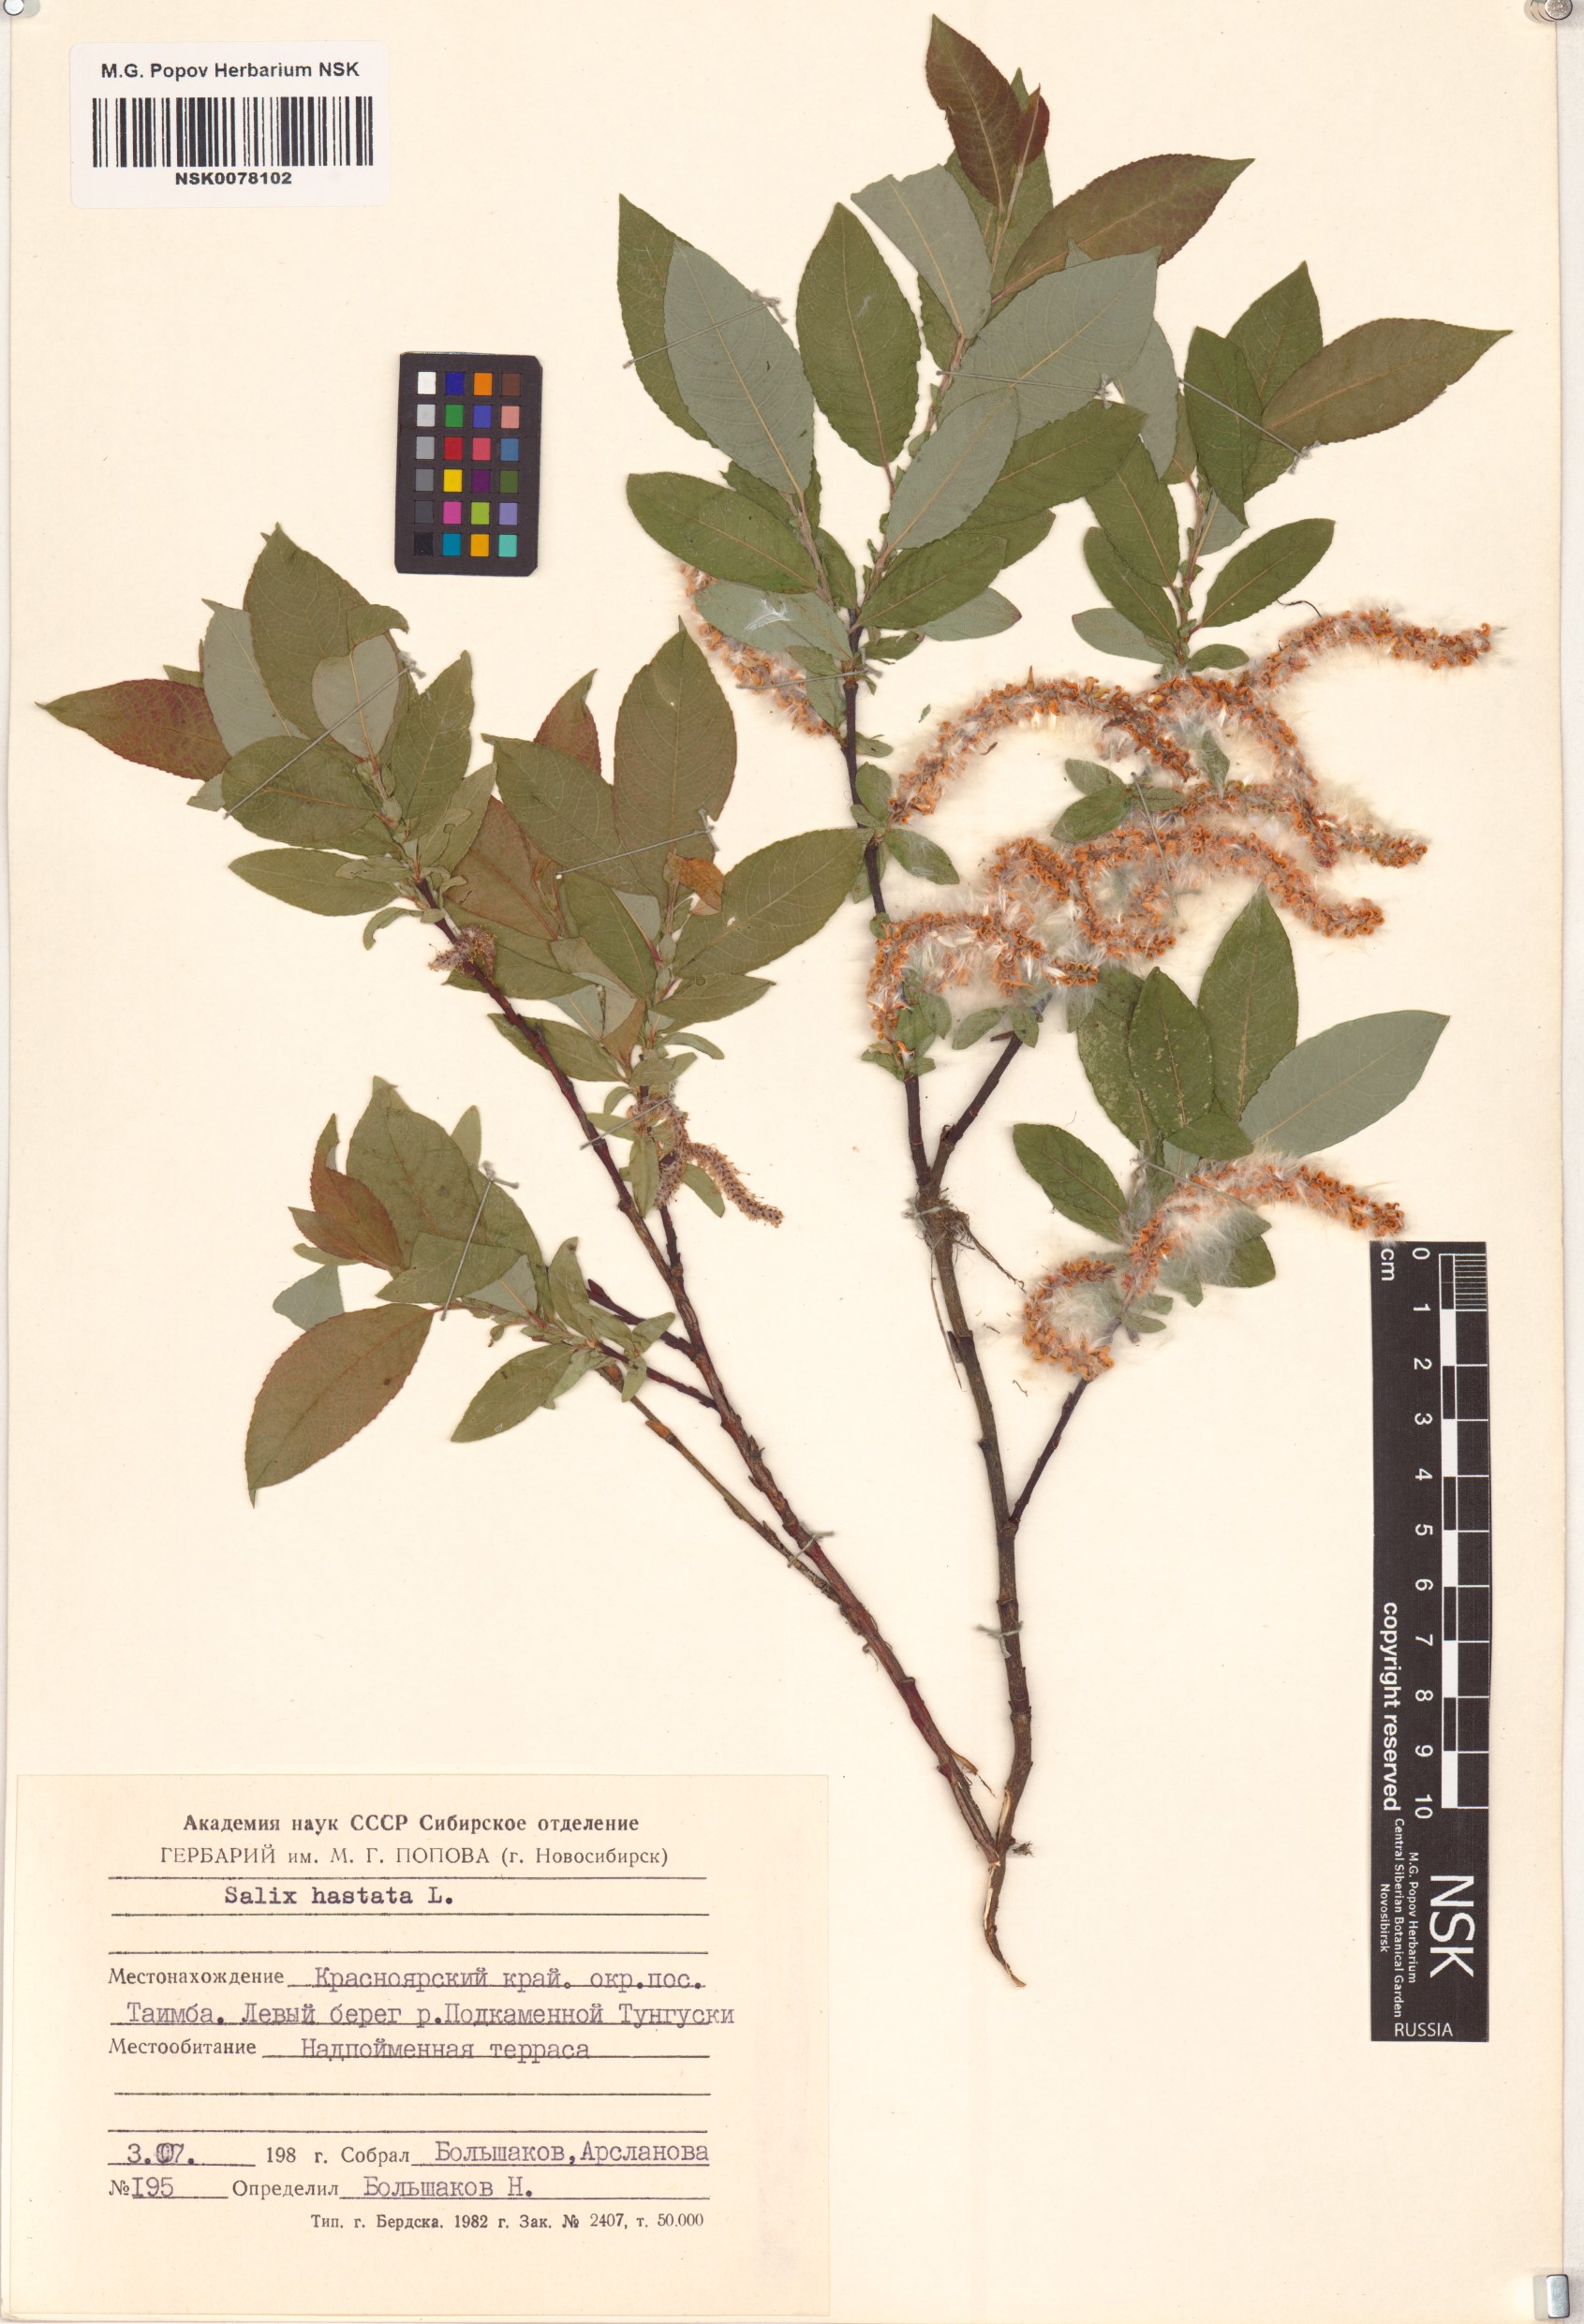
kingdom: Plantae
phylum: Tracheophyta
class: Magnoliopsida
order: Malpighiales
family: Salicaceae
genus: Salix
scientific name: Salix hastata
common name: Halberd willow
